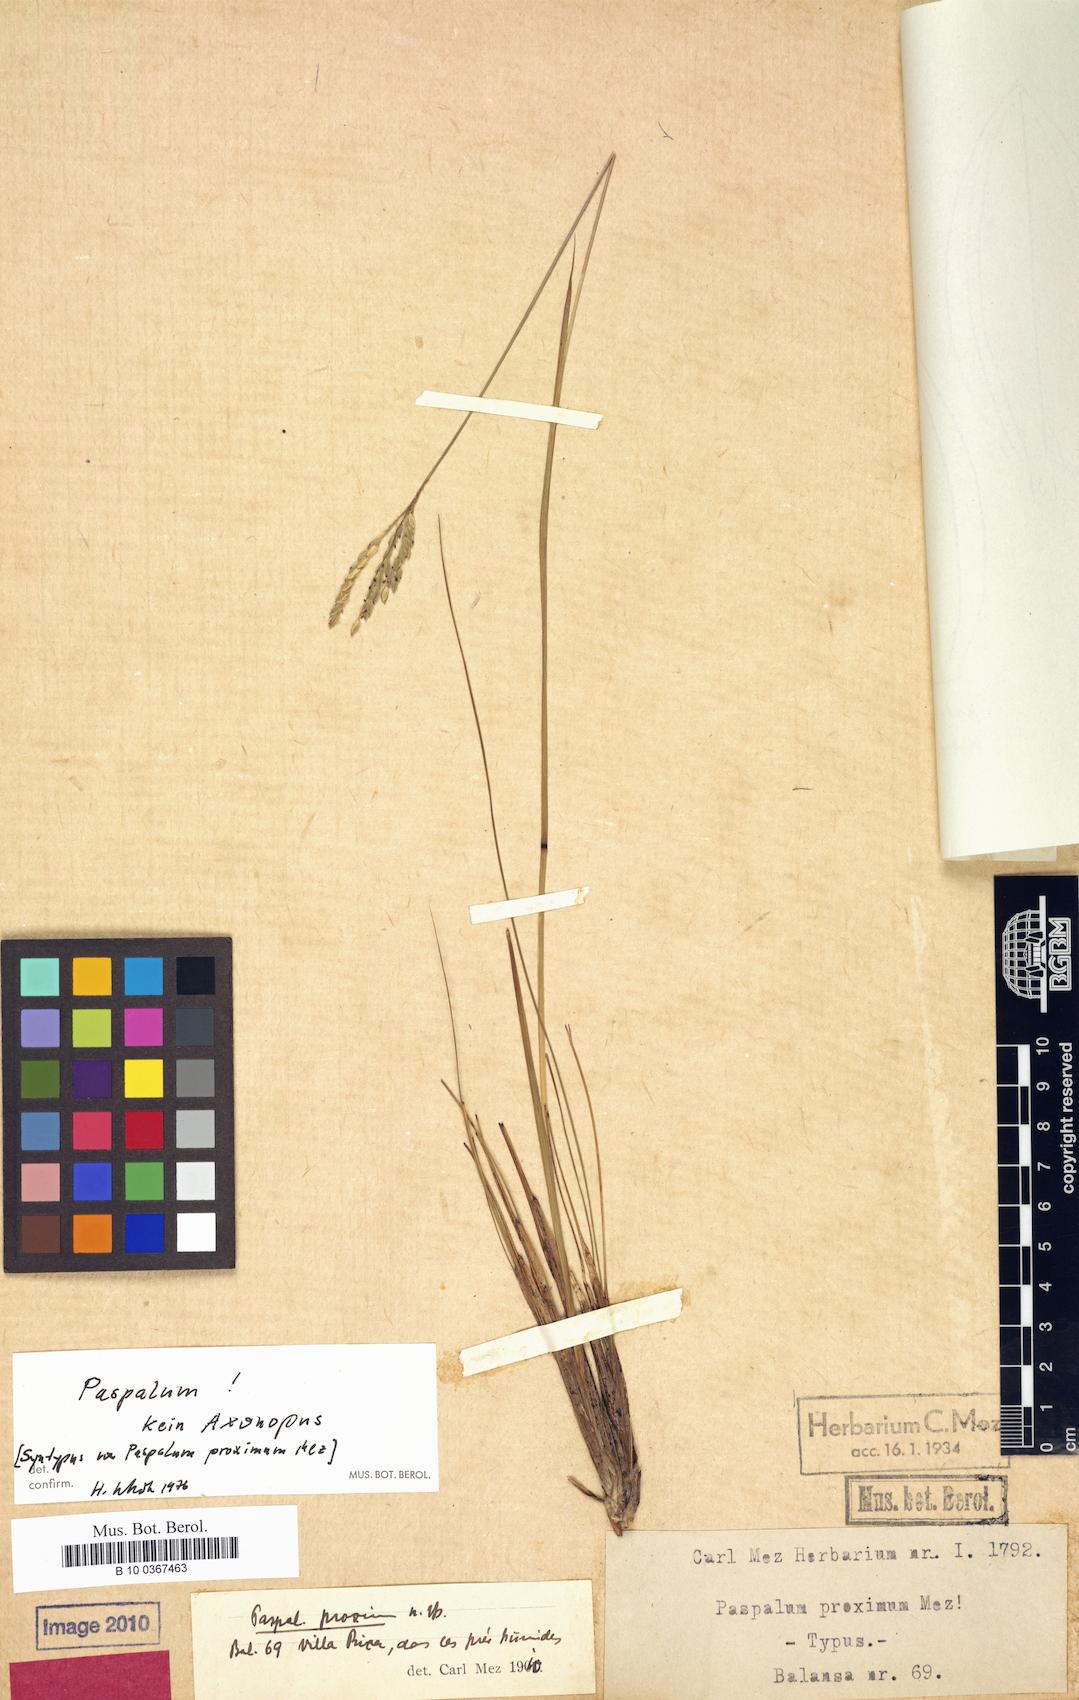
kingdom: Plantae
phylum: Tracheophyta
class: Liliopsida
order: Poales
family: Poaceae
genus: Paspalum
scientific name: Paspalum ellipticum
